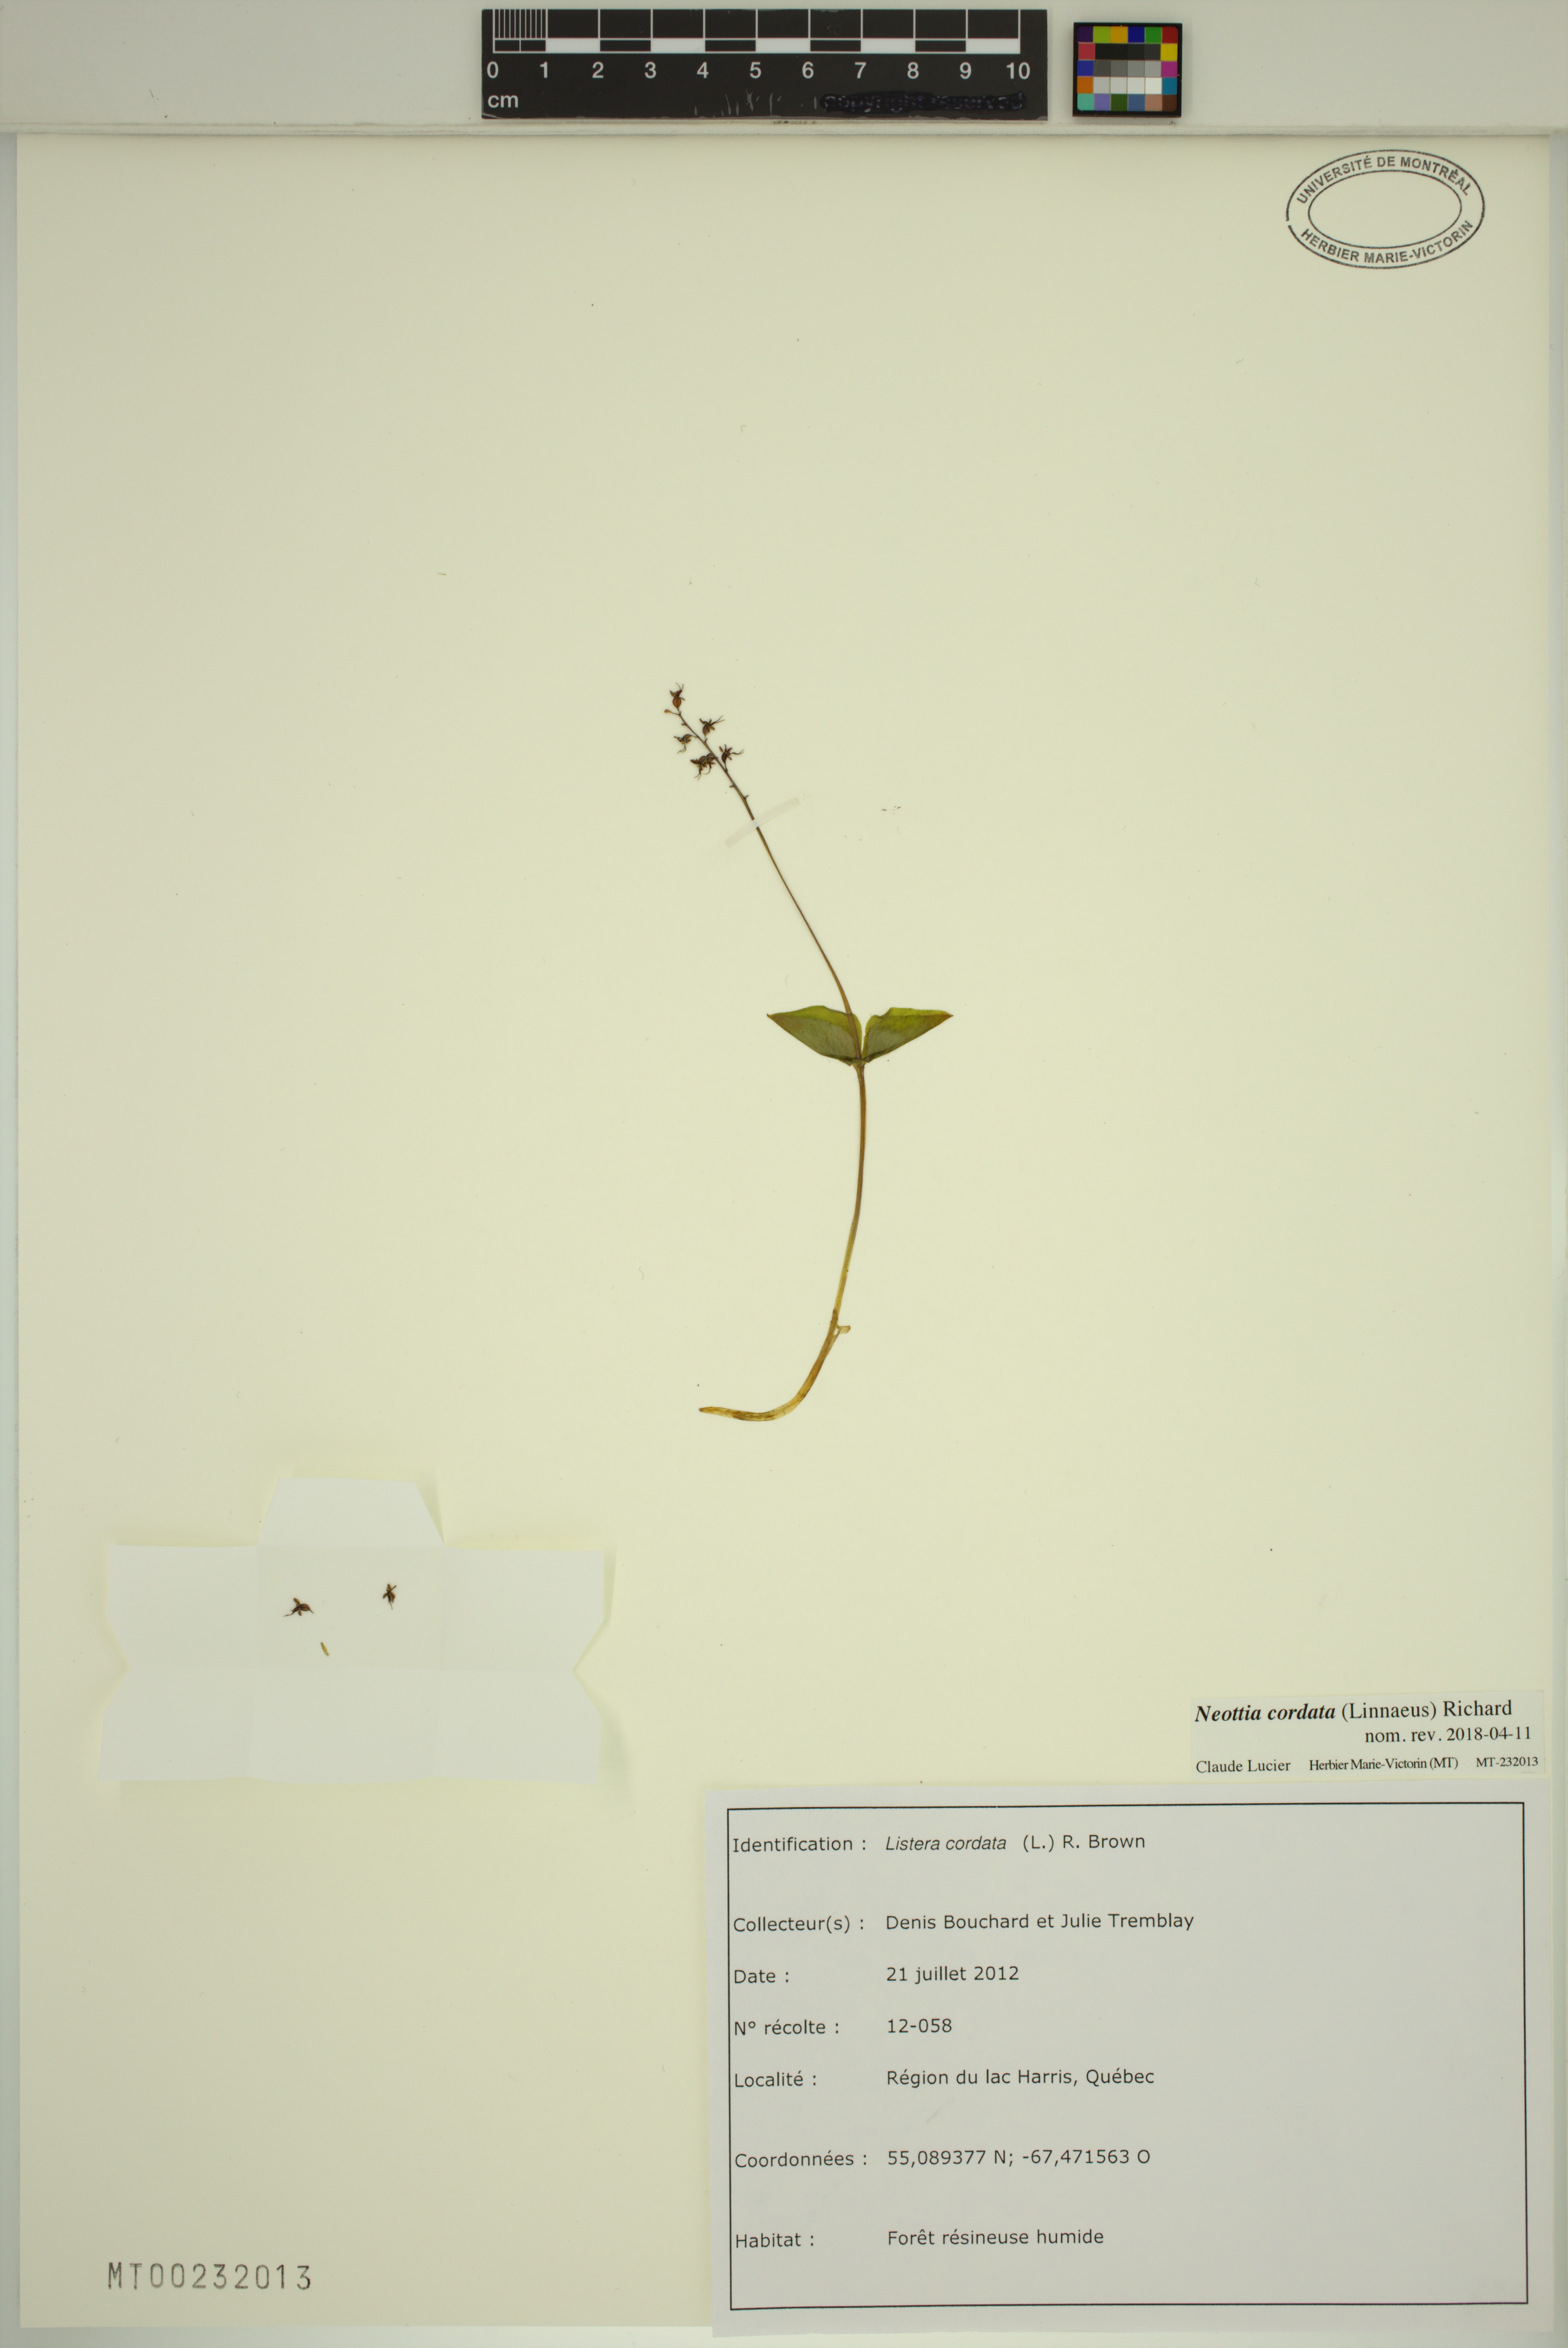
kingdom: Plantae
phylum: Tracheophyta
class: Liliopsida
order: Asparagales
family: Orchidaceae
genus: Neottia
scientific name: Neottia cordata
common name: Lesser twayblade
